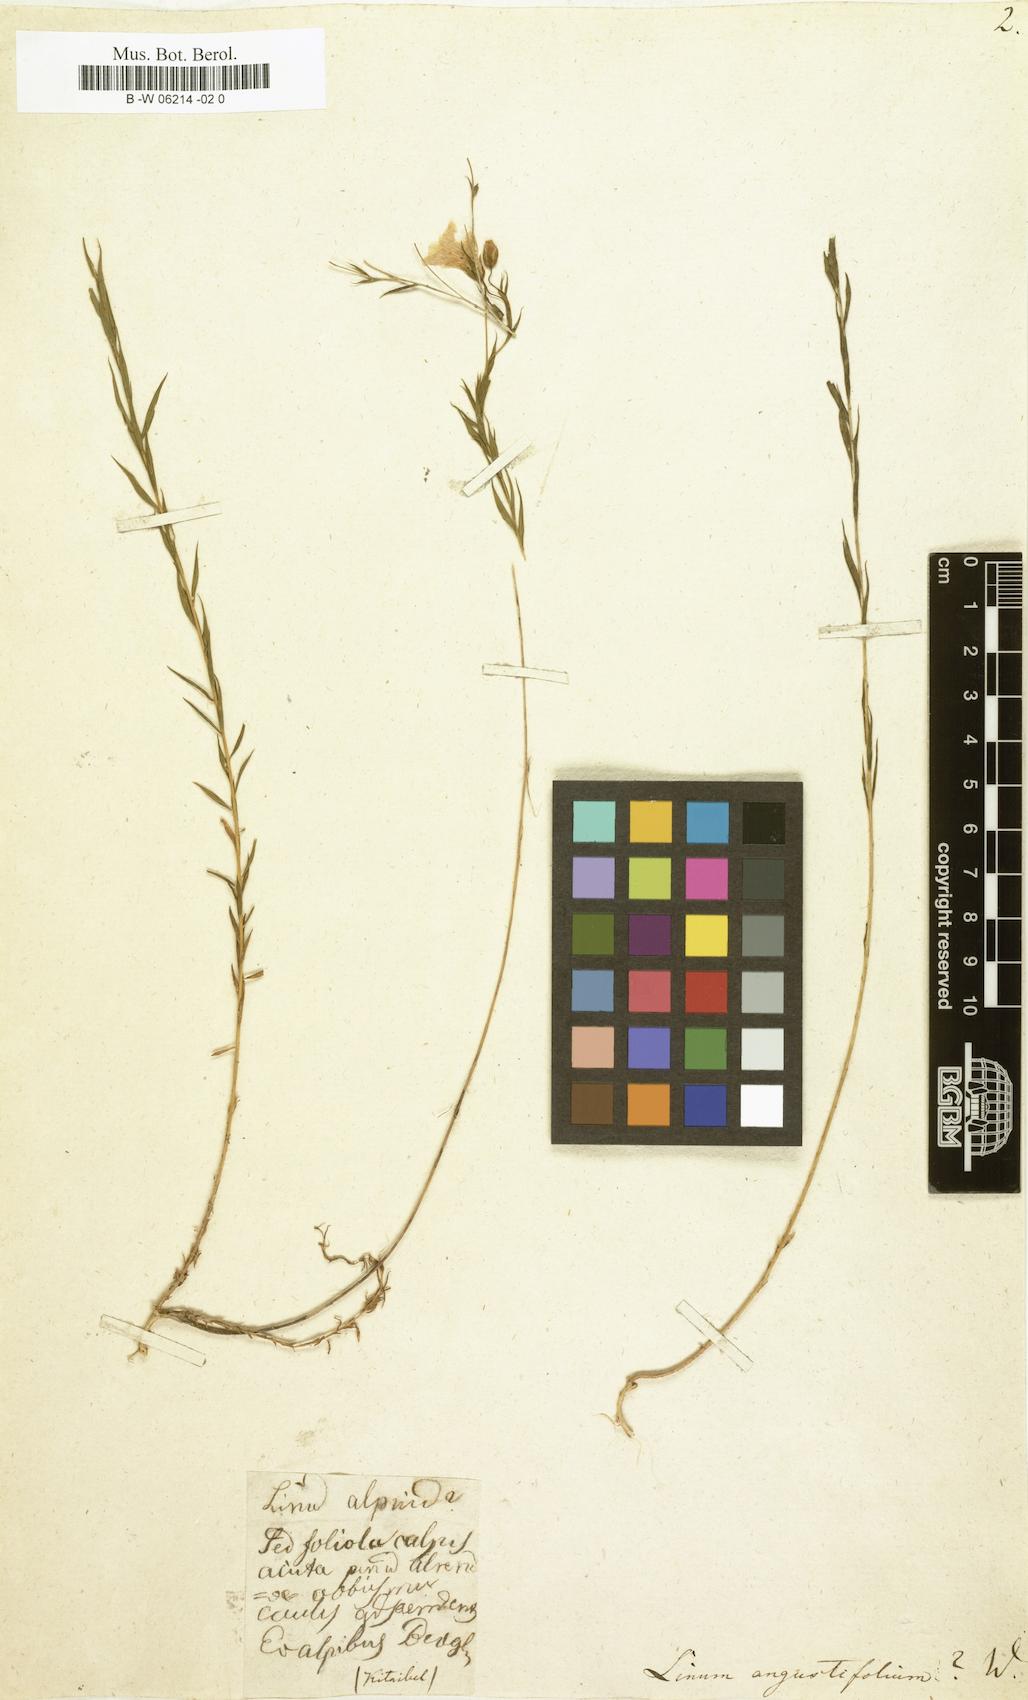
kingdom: Plantae
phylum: Tracheophyta
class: Magnoliopsida
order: Malpighiales
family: Linaceae
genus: Linum
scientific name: Linum
